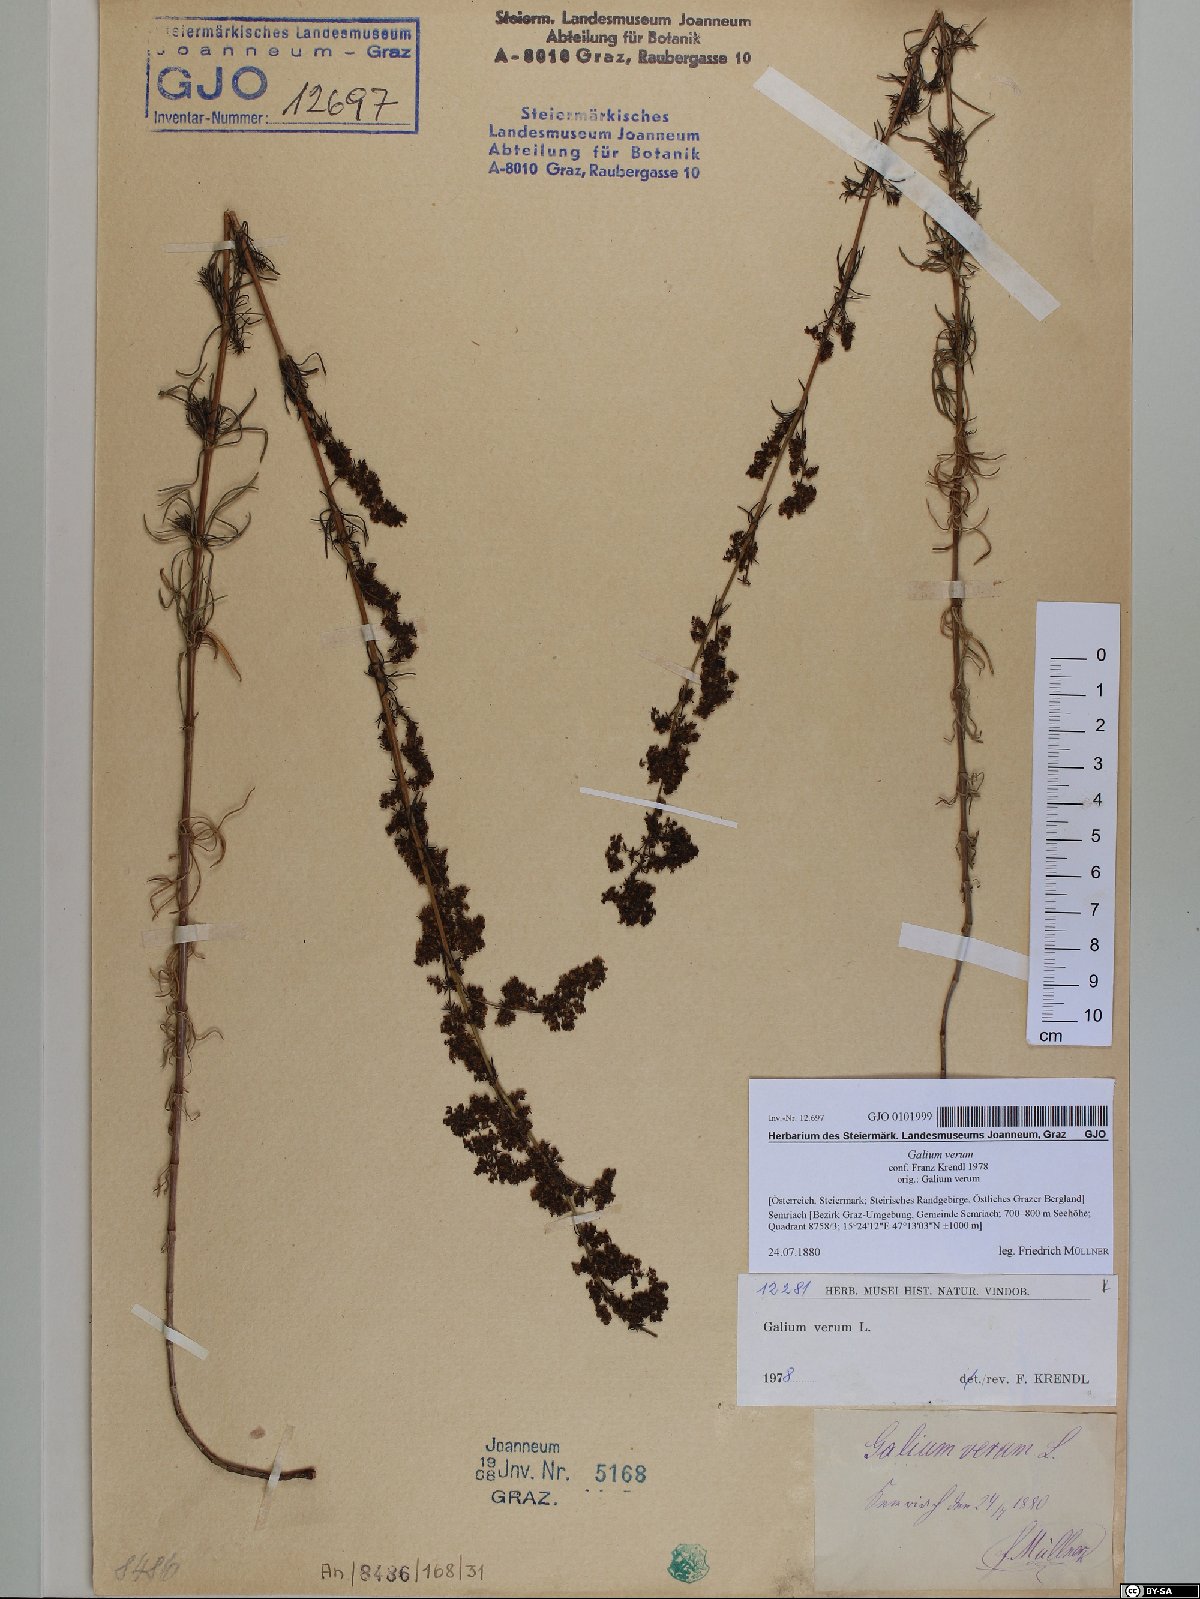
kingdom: Plantae
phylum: Tracheophyta
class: Magnoliopsida
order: Gentianales
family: Rubiaceae
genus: Galium
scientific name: Galium verum
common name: Lady's bedstraw
